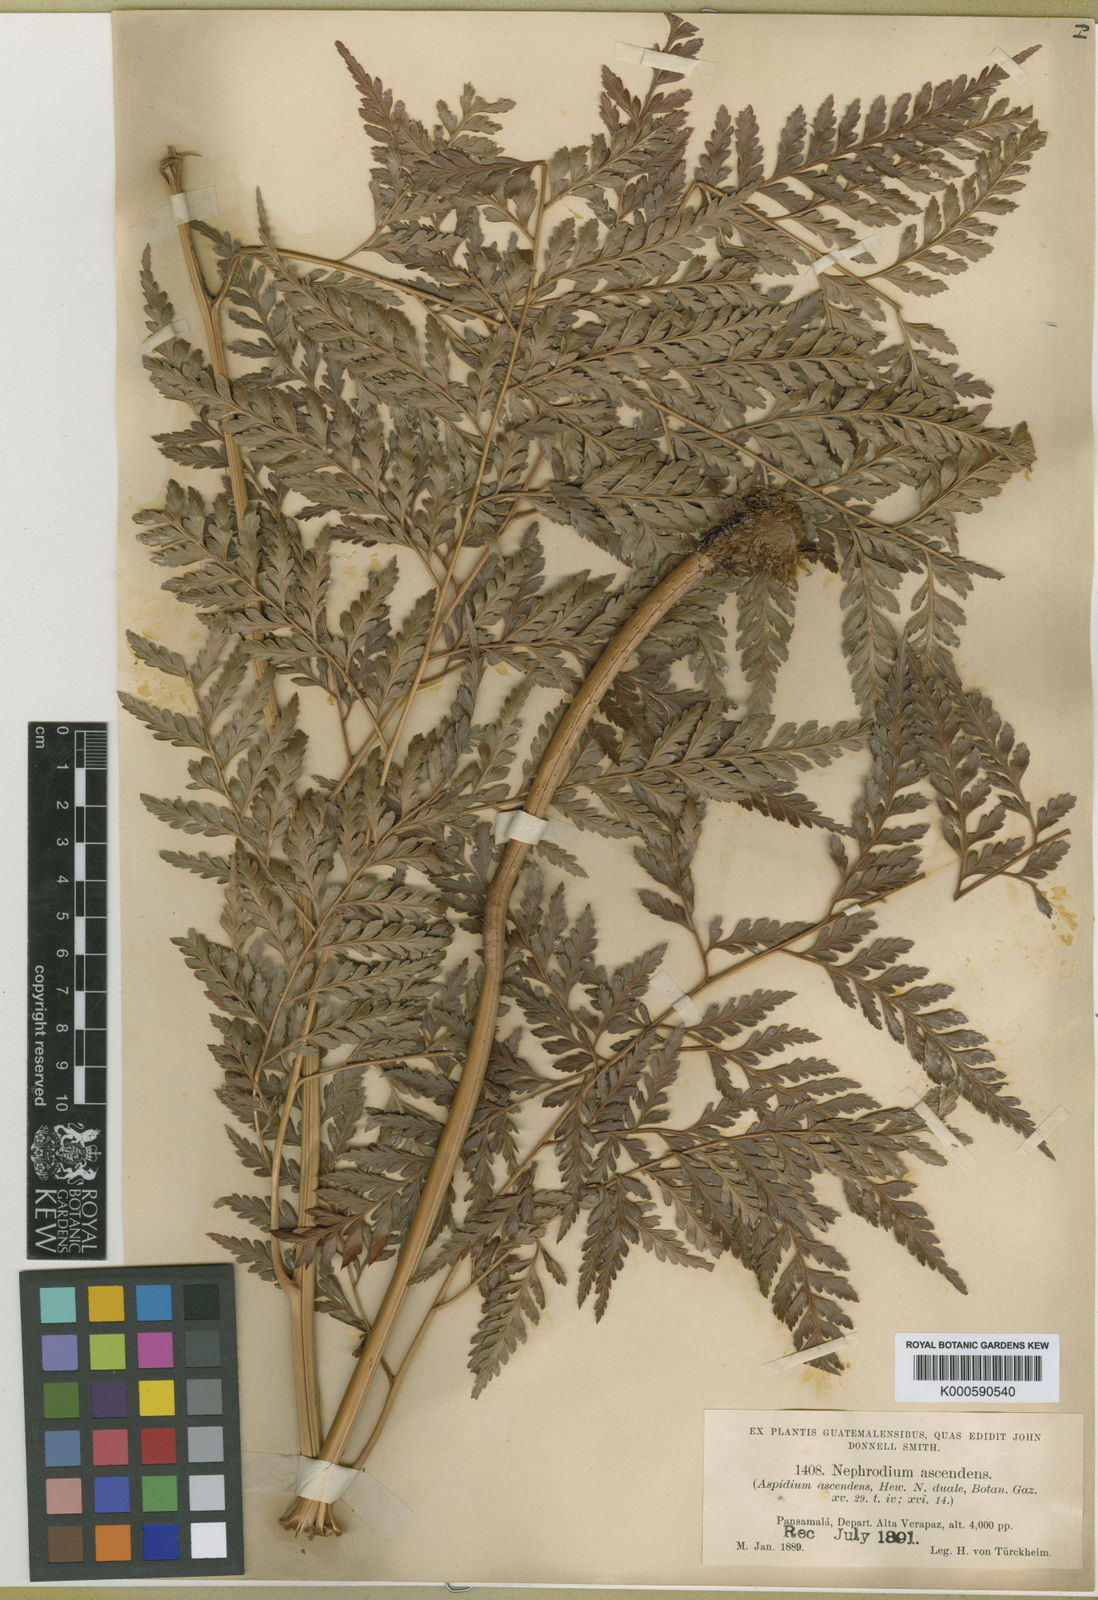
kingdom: Plantae
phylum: Tracheophyta
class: Polypodiopsida
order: Polypodiales
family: Dryopteridaceae
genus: Maxonia
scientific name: Maxonia apiifolia
